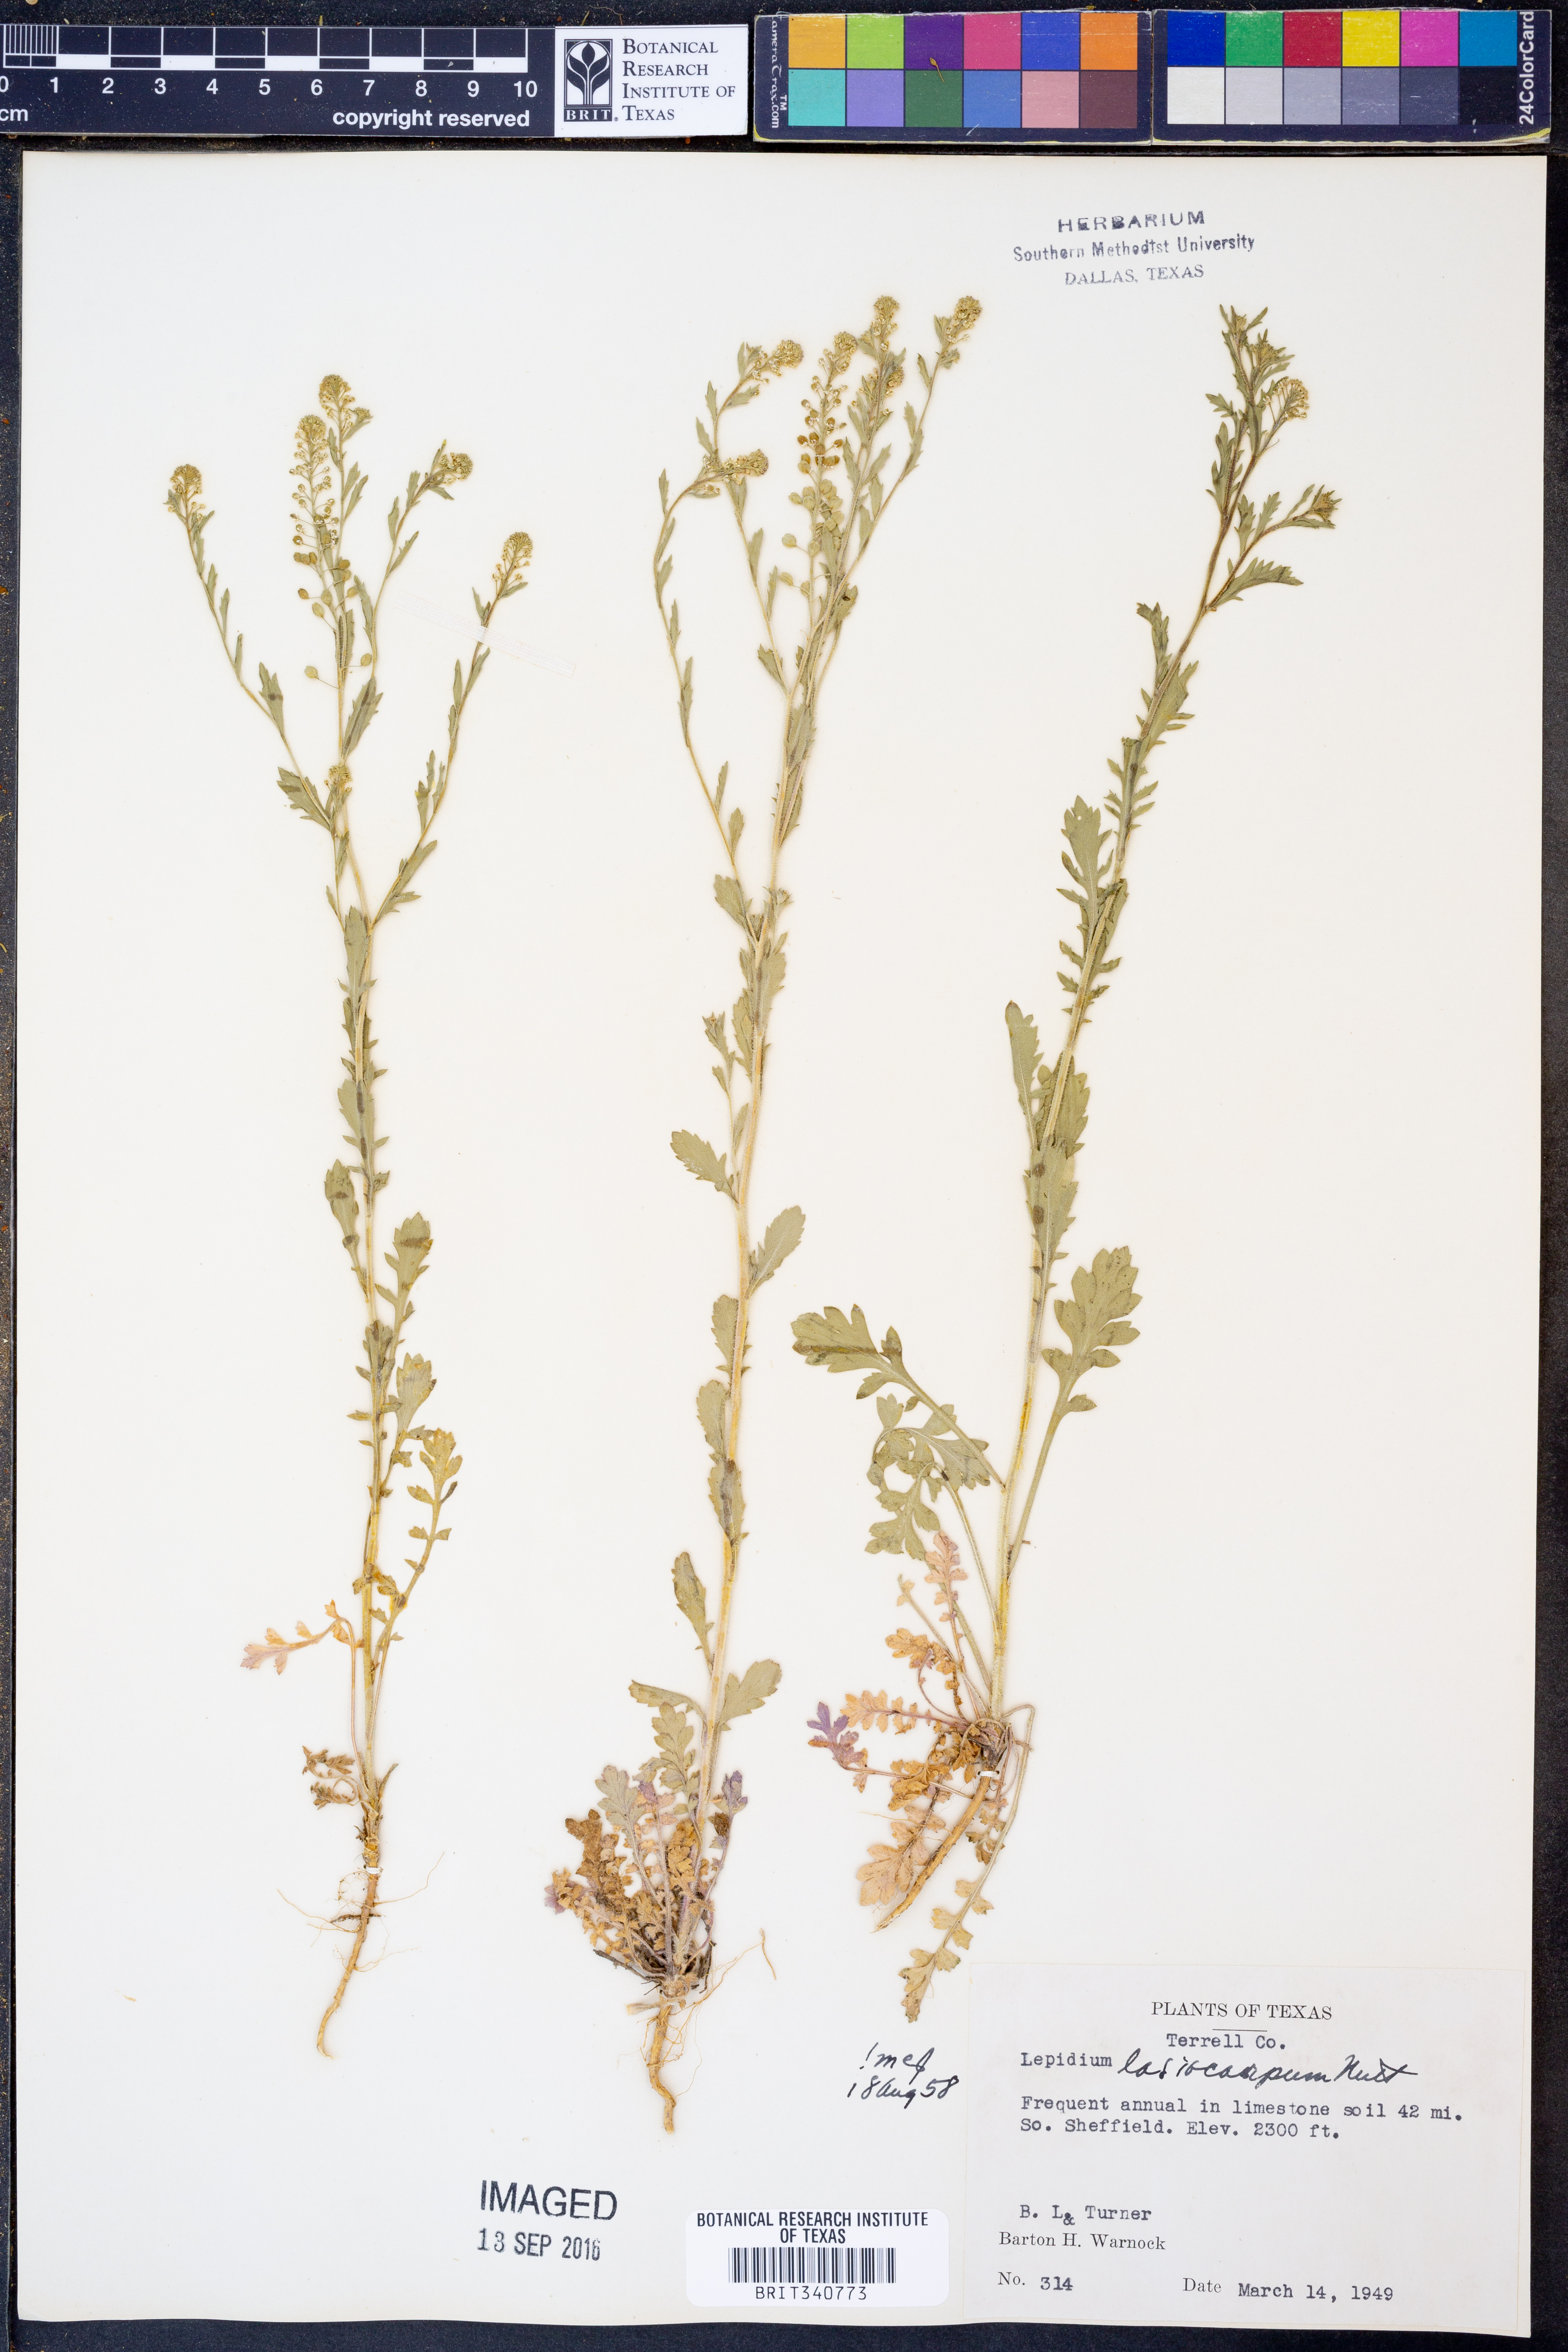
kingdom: Plantae
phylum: Tracheophyta
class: Magnoliopsida
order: Brassicales
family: Brassicaceae
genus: Lepidium
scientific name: Lepidium lasiocarpum
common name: Hairy-pod pepperwort
